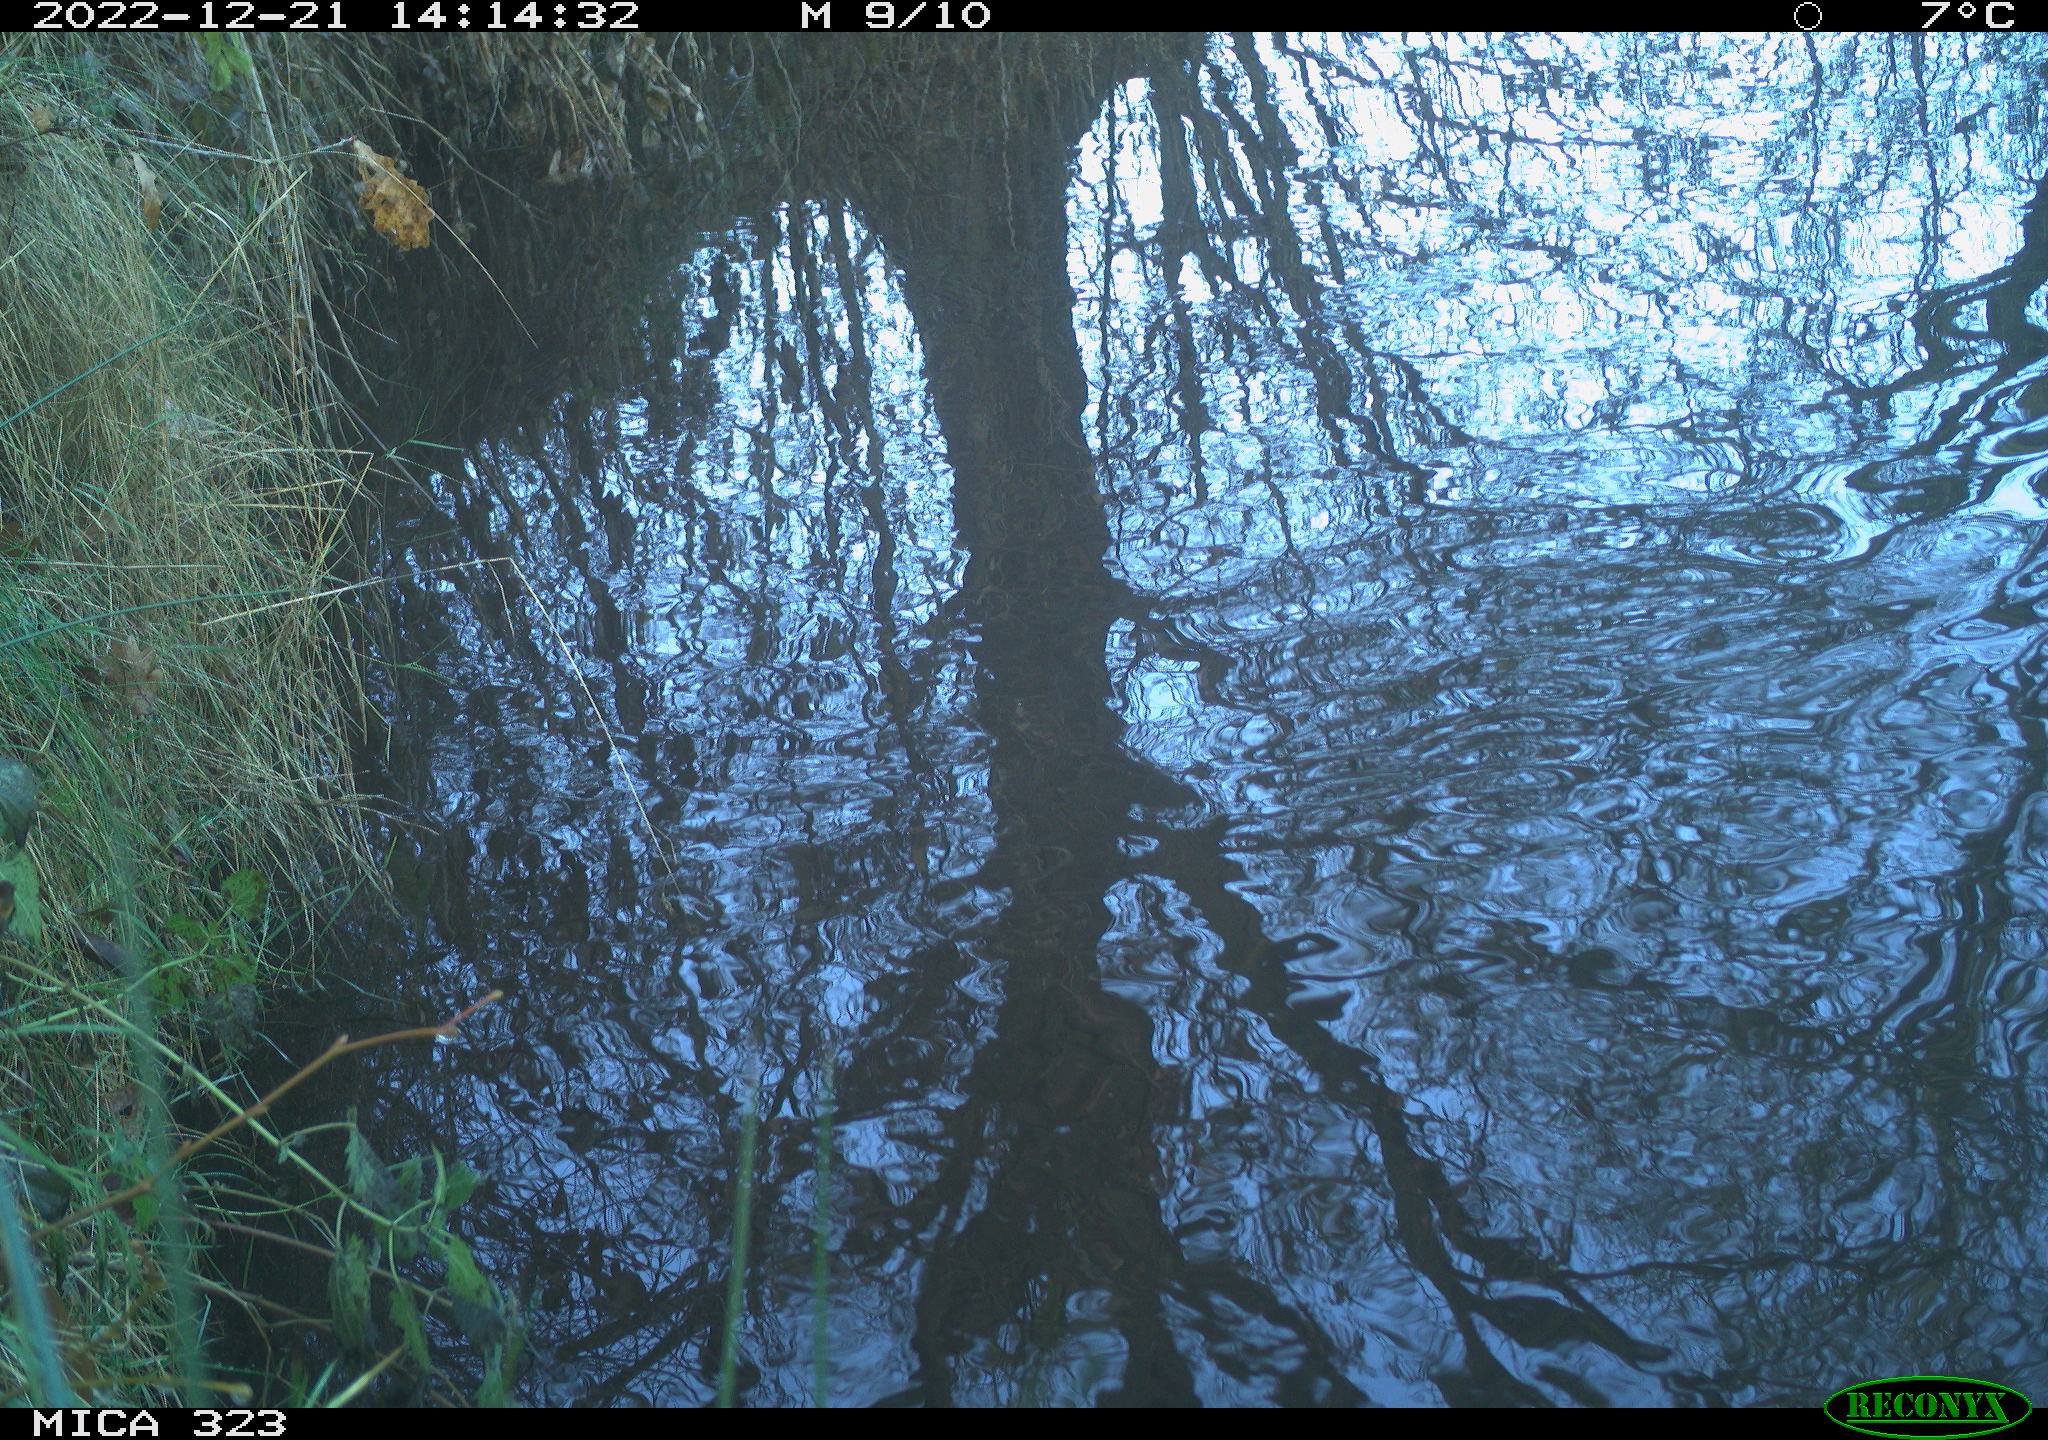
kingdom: Animalia
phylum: Chordata
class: Aves
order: Gruiformes
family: Rallidae
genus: Gallinula
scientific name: Gallinula chloropus
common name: Common moorhen
